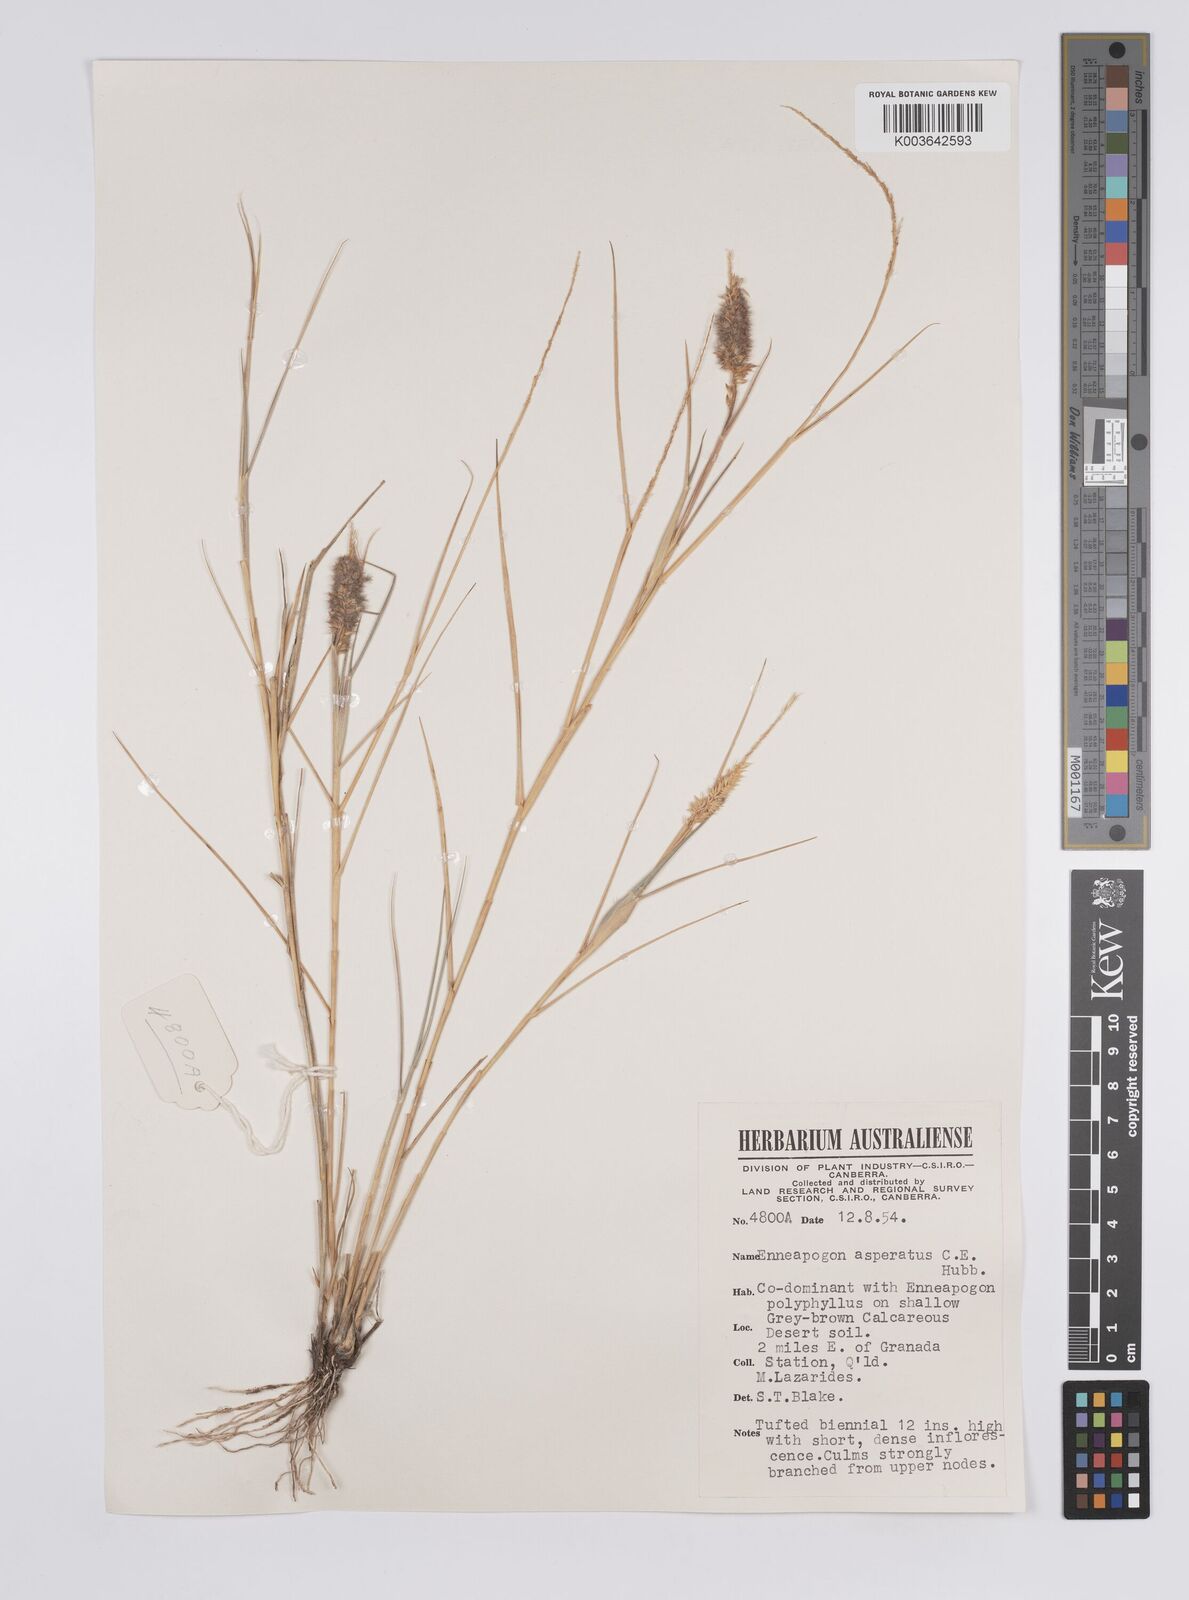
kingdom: Plantae
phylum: Tracheophyta
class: Liliopsida
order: Poales
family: Poaceae
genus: Enneapogon
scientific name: Enneapogon asperatus
